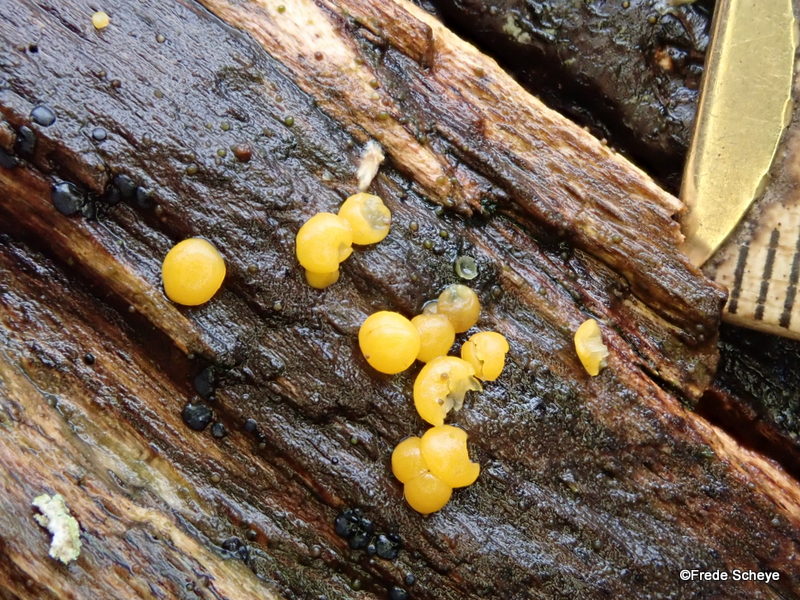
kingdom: Fungi
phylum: Ascomycota
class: Leotiomycetes
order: Helotiales
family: Pezizellaceae
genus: Calycina
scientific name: Calycina citrina
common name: almindelig gulskive
